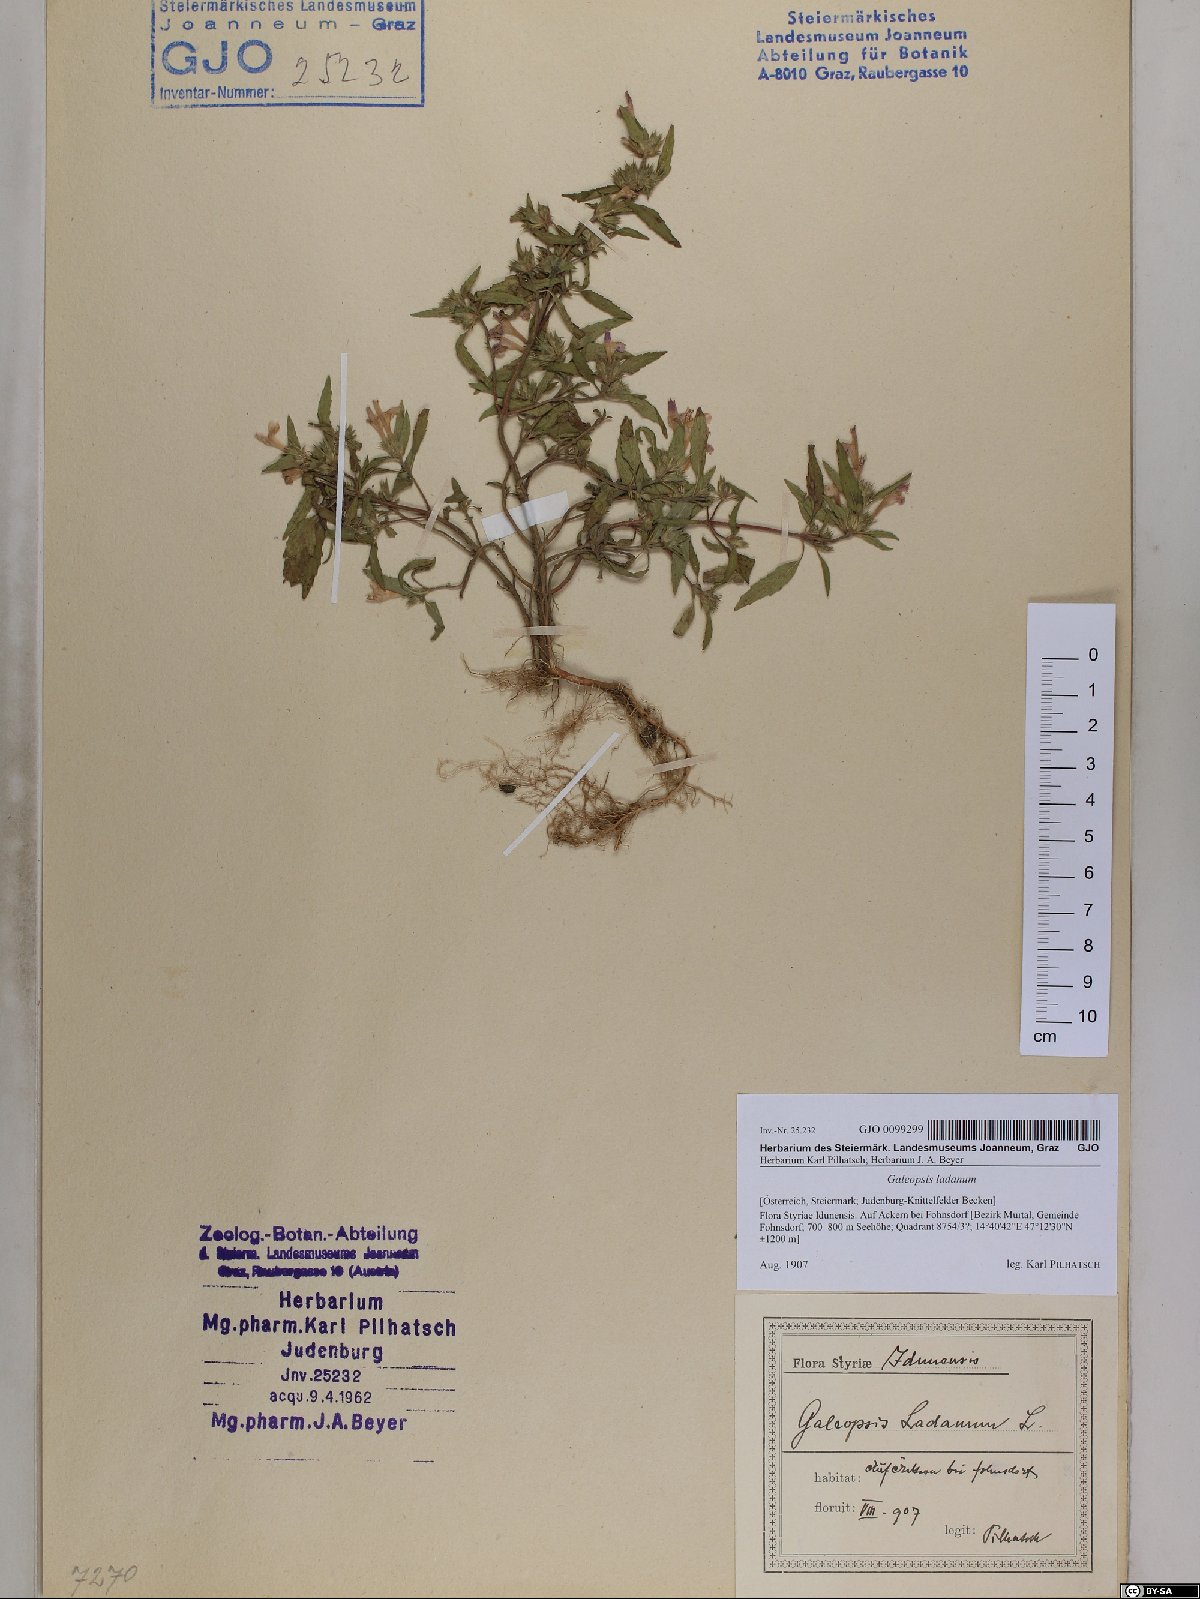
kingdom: Plantae
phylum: Tracheophyta
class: Magnoliopsida
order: Lamiales
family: Lamiaceae
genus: Galeopsis
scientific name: Galeopsis ladanum
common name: Broad-leaved hemp-nettle
